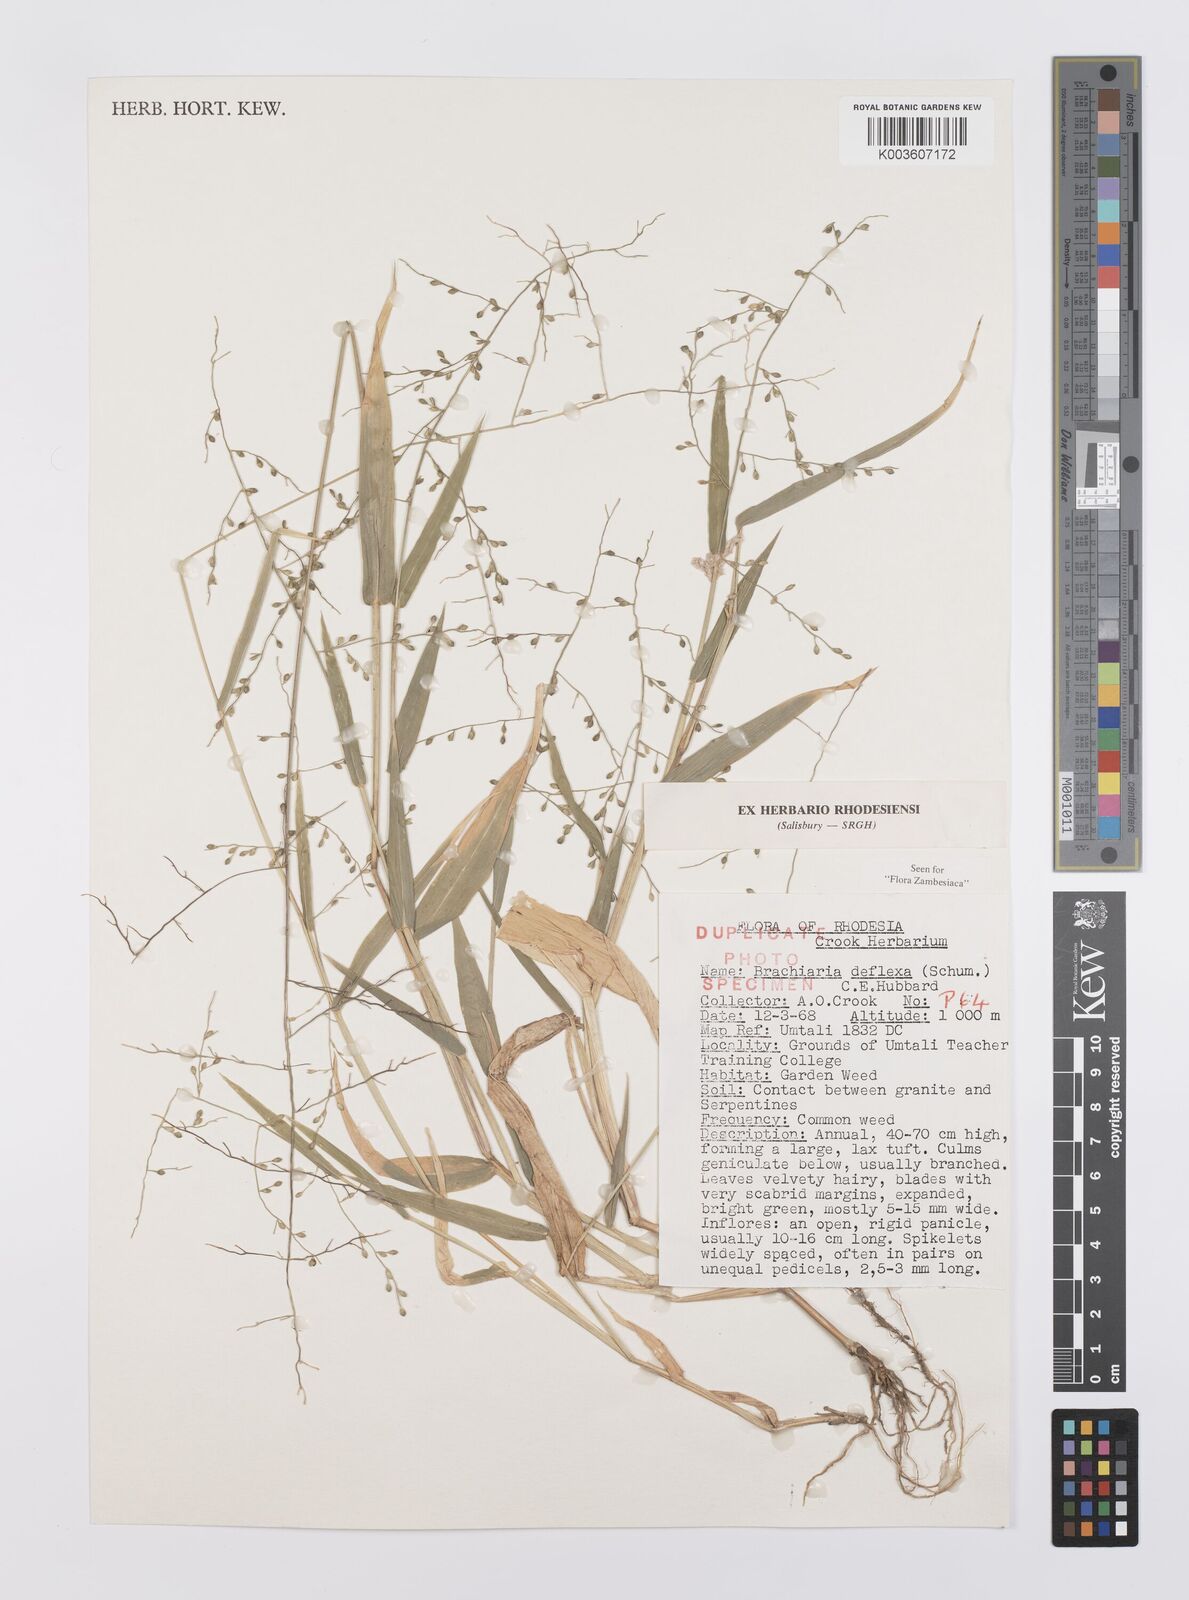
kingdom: Plantae
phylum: Tracheophyta
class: Liliopsida
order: Poales
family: Poaceae
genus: Urochloa
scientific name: Urochloa deflexa
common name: Guinea millet
